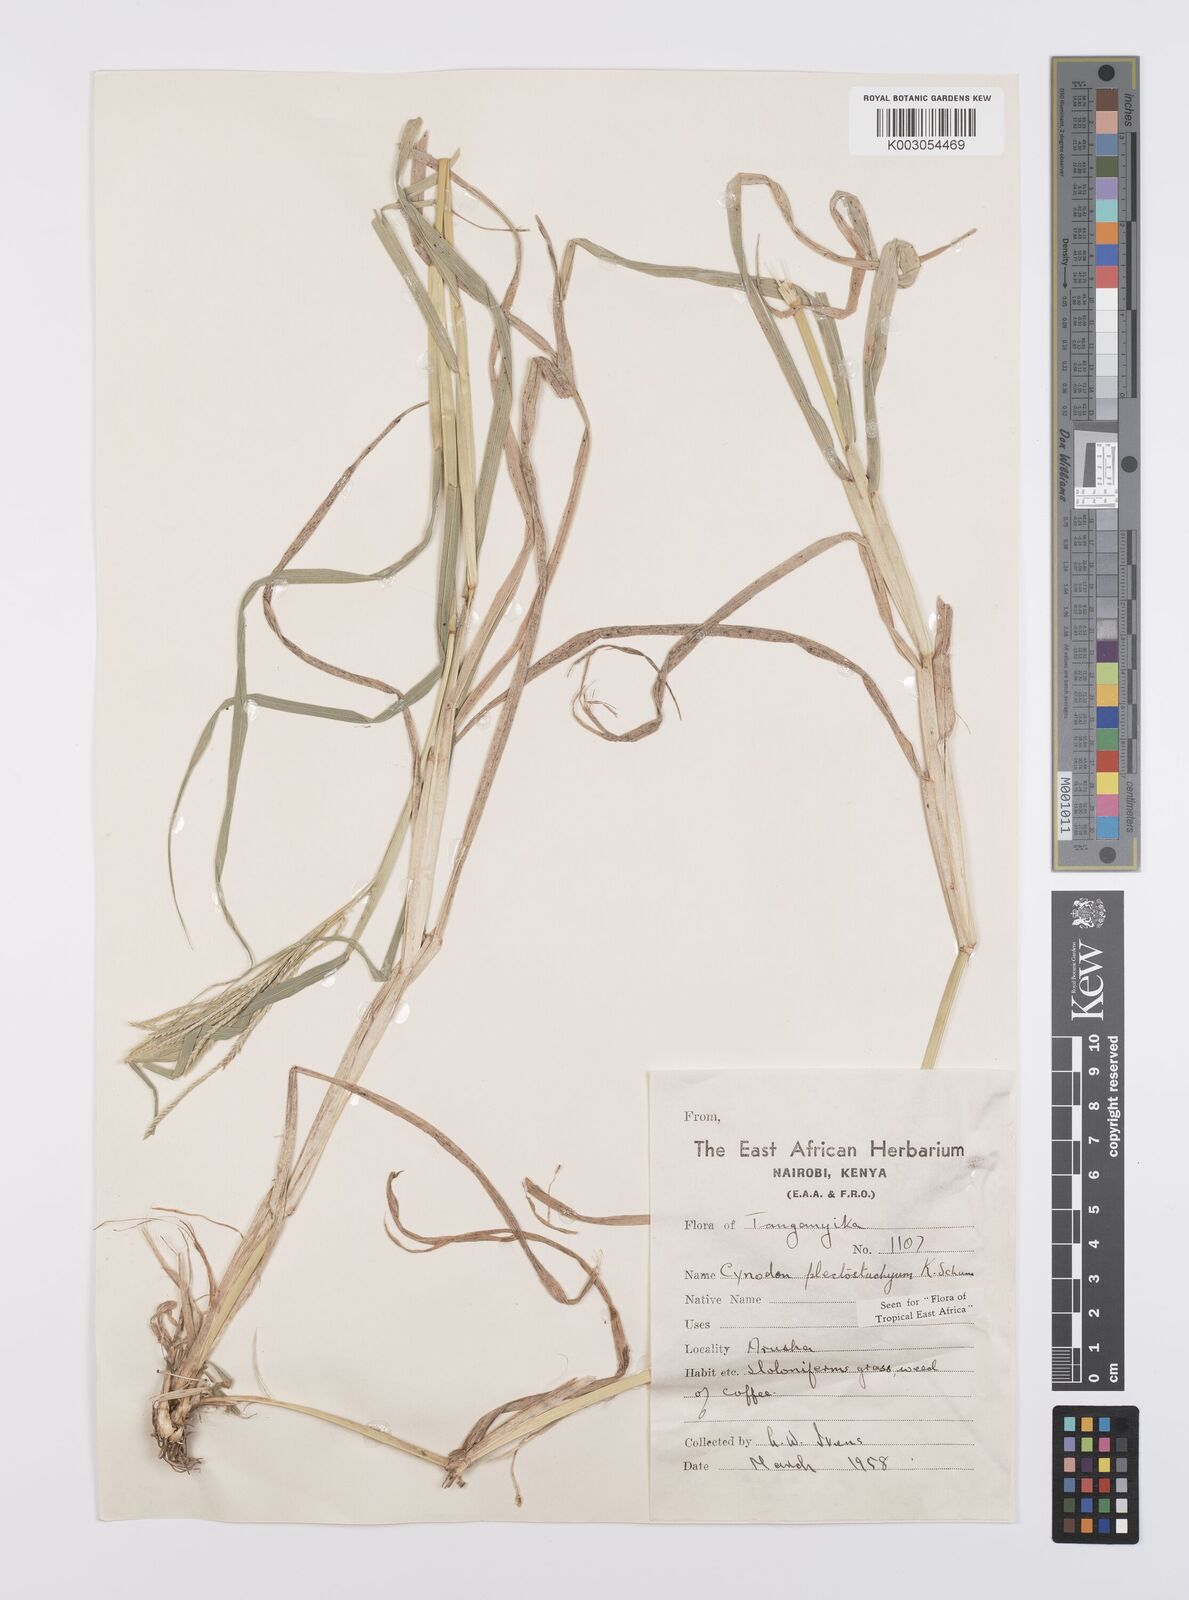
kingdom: Plantae
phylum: Tracheophyta
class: Liliopsida
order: Poales
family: Poaceae
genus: Cynodon
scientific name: Cynodon plectostachyus
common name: Stargrass
